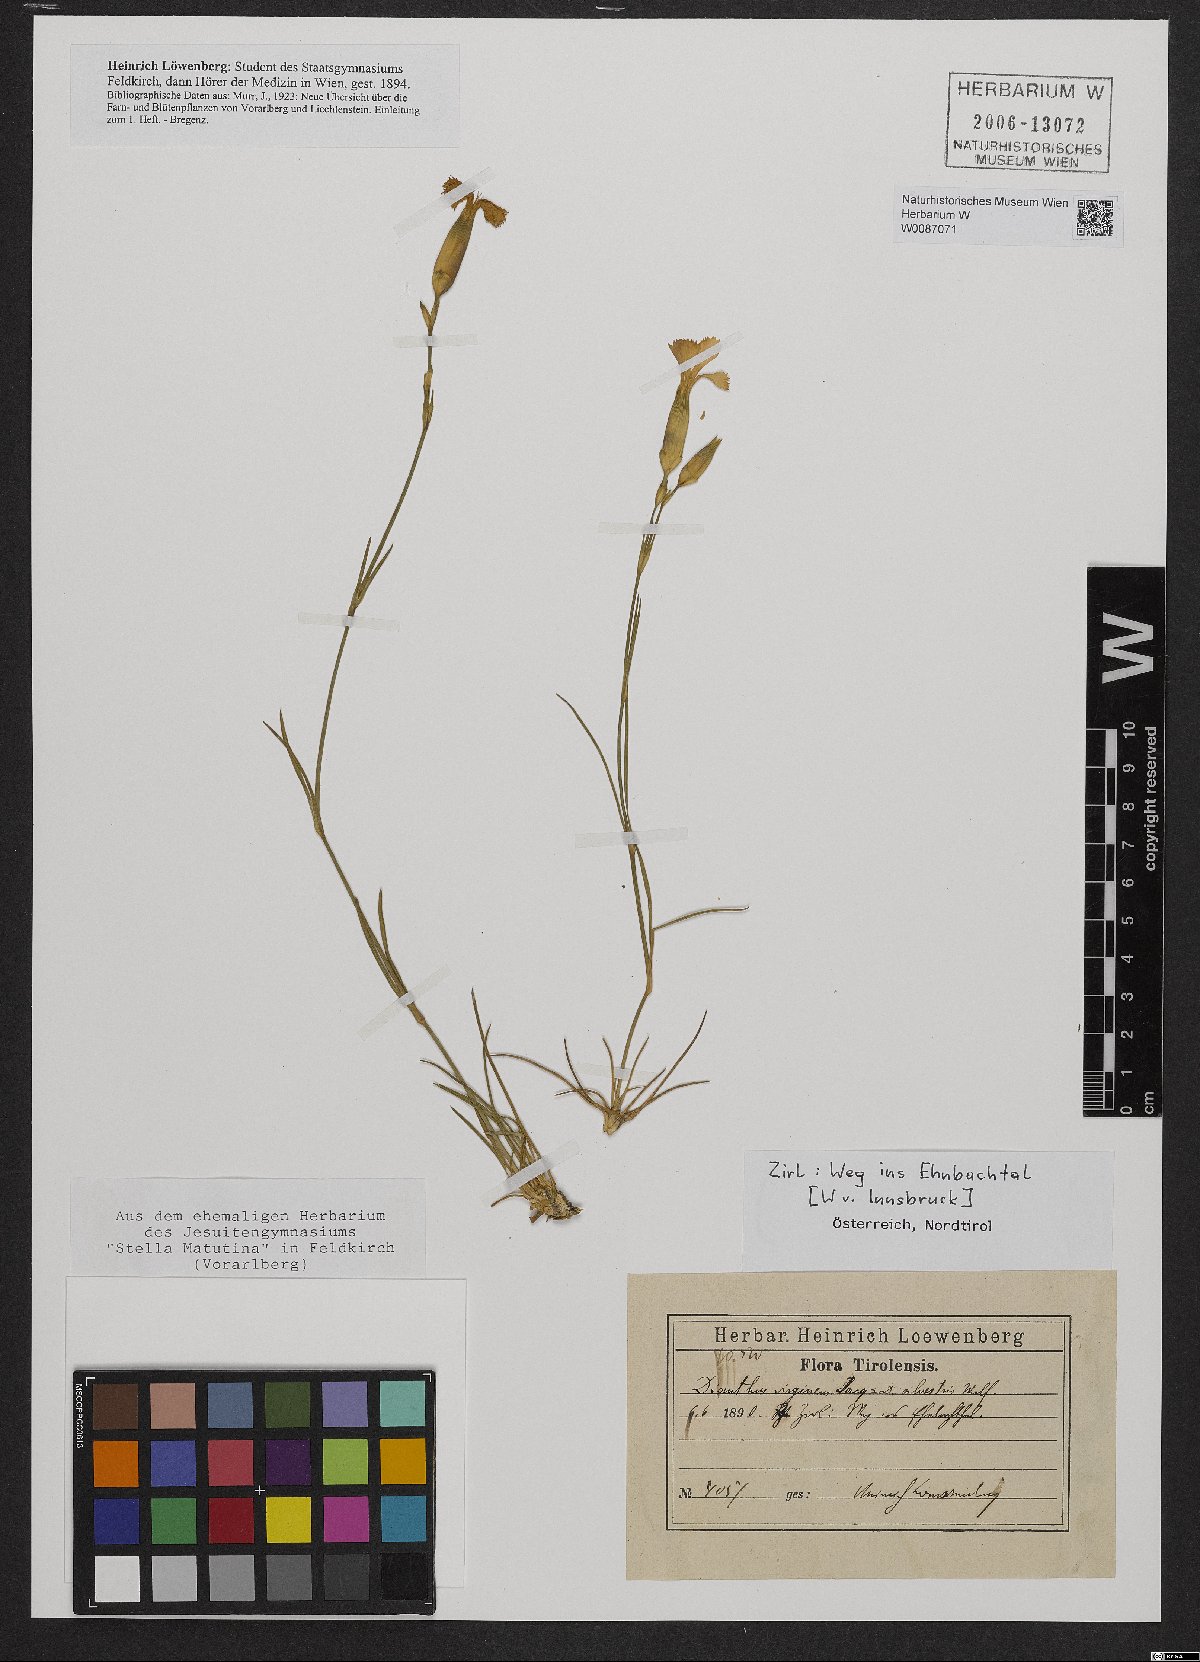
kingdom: Plantae
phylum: Tracheophyta
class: Magnoliopsida
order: Caryophyllales
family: Caryophyllaceae
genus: Dianthus
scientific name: Dianthus virgineus
